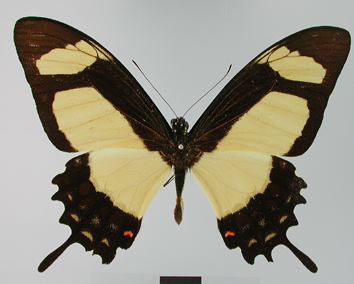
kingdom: Animalia
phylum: Arthropoda
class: Insecta
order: Lepidoptera
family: Papilionidae
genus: Papilio
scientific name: Papilio garleppi
